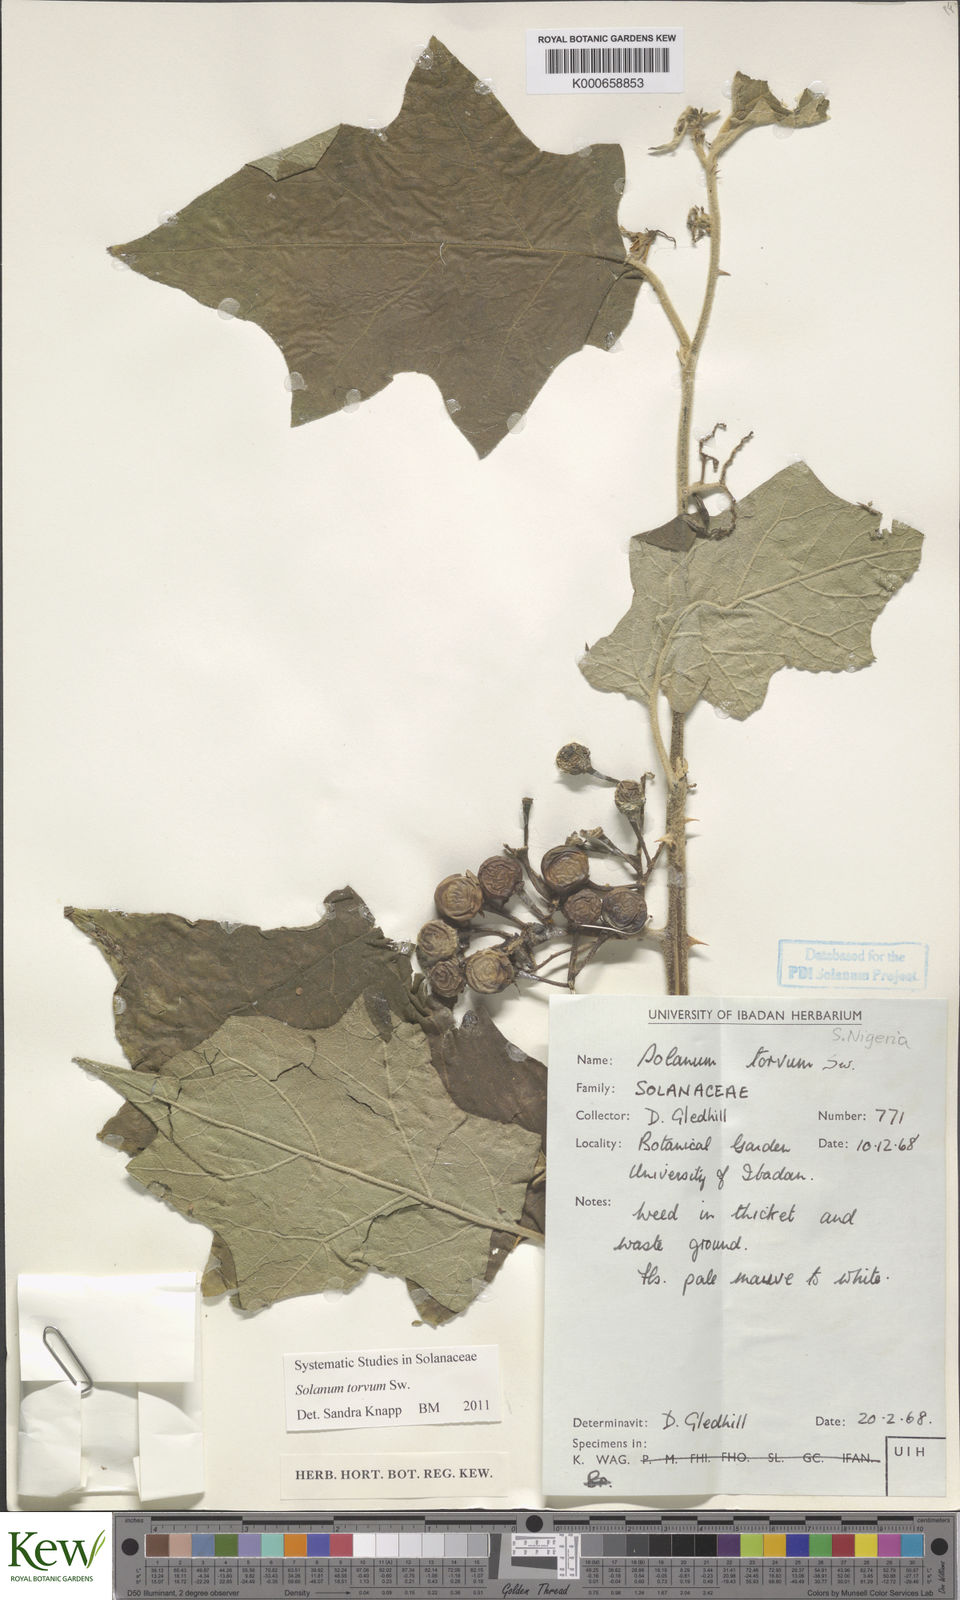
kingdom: Plantae
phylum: Tracheophyta
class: Magnoliopsida
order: Solanales
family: Solanaceae
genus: Solanum
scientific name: Solanum torvum
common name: Turkey berry
